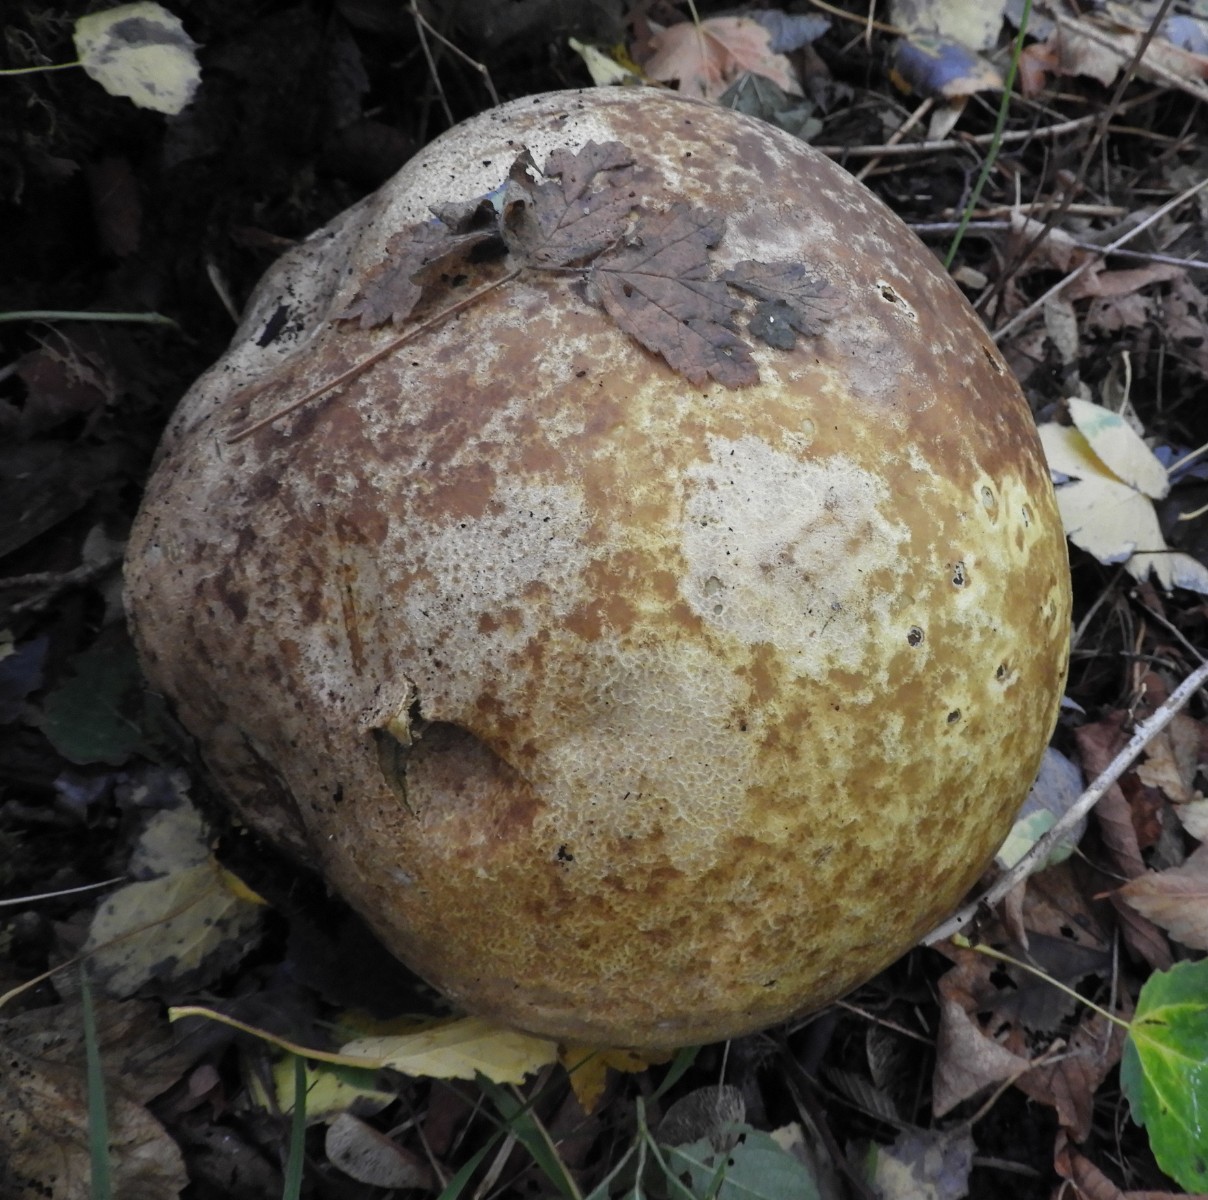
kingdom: Fungi
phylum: Basidiomycota
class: Agaricomycetes
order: Agaricales
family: Lycoperdaceae
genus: Calvatia
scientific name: Calvatia gigantea
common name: kæmpestøvbold
